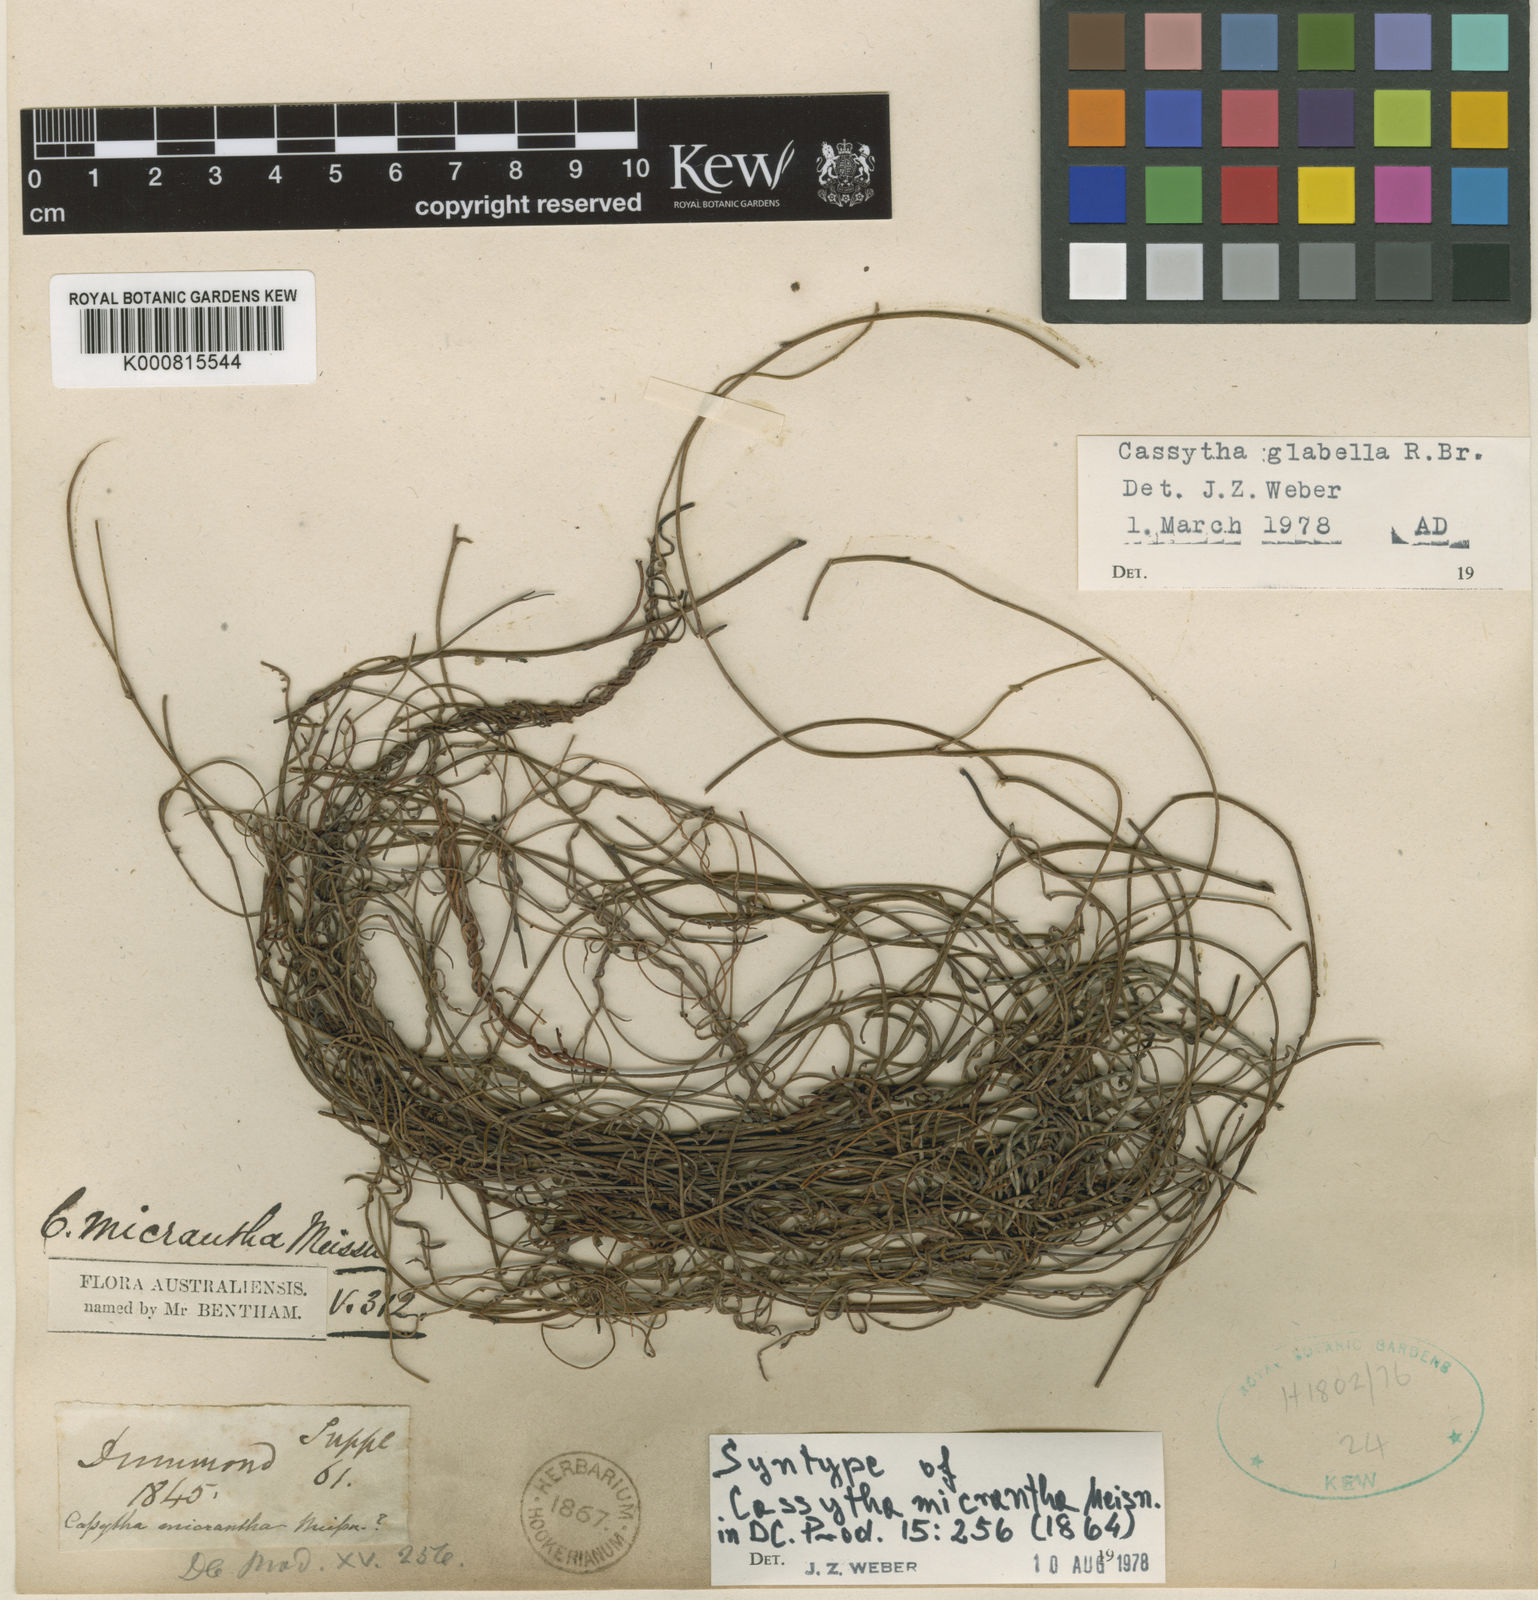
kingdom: Plantae
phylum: Tracheophyta
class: Magnoliopsida
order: Laurales
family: Lauraceae
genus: Cassytha
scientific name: Cassytha glabella
